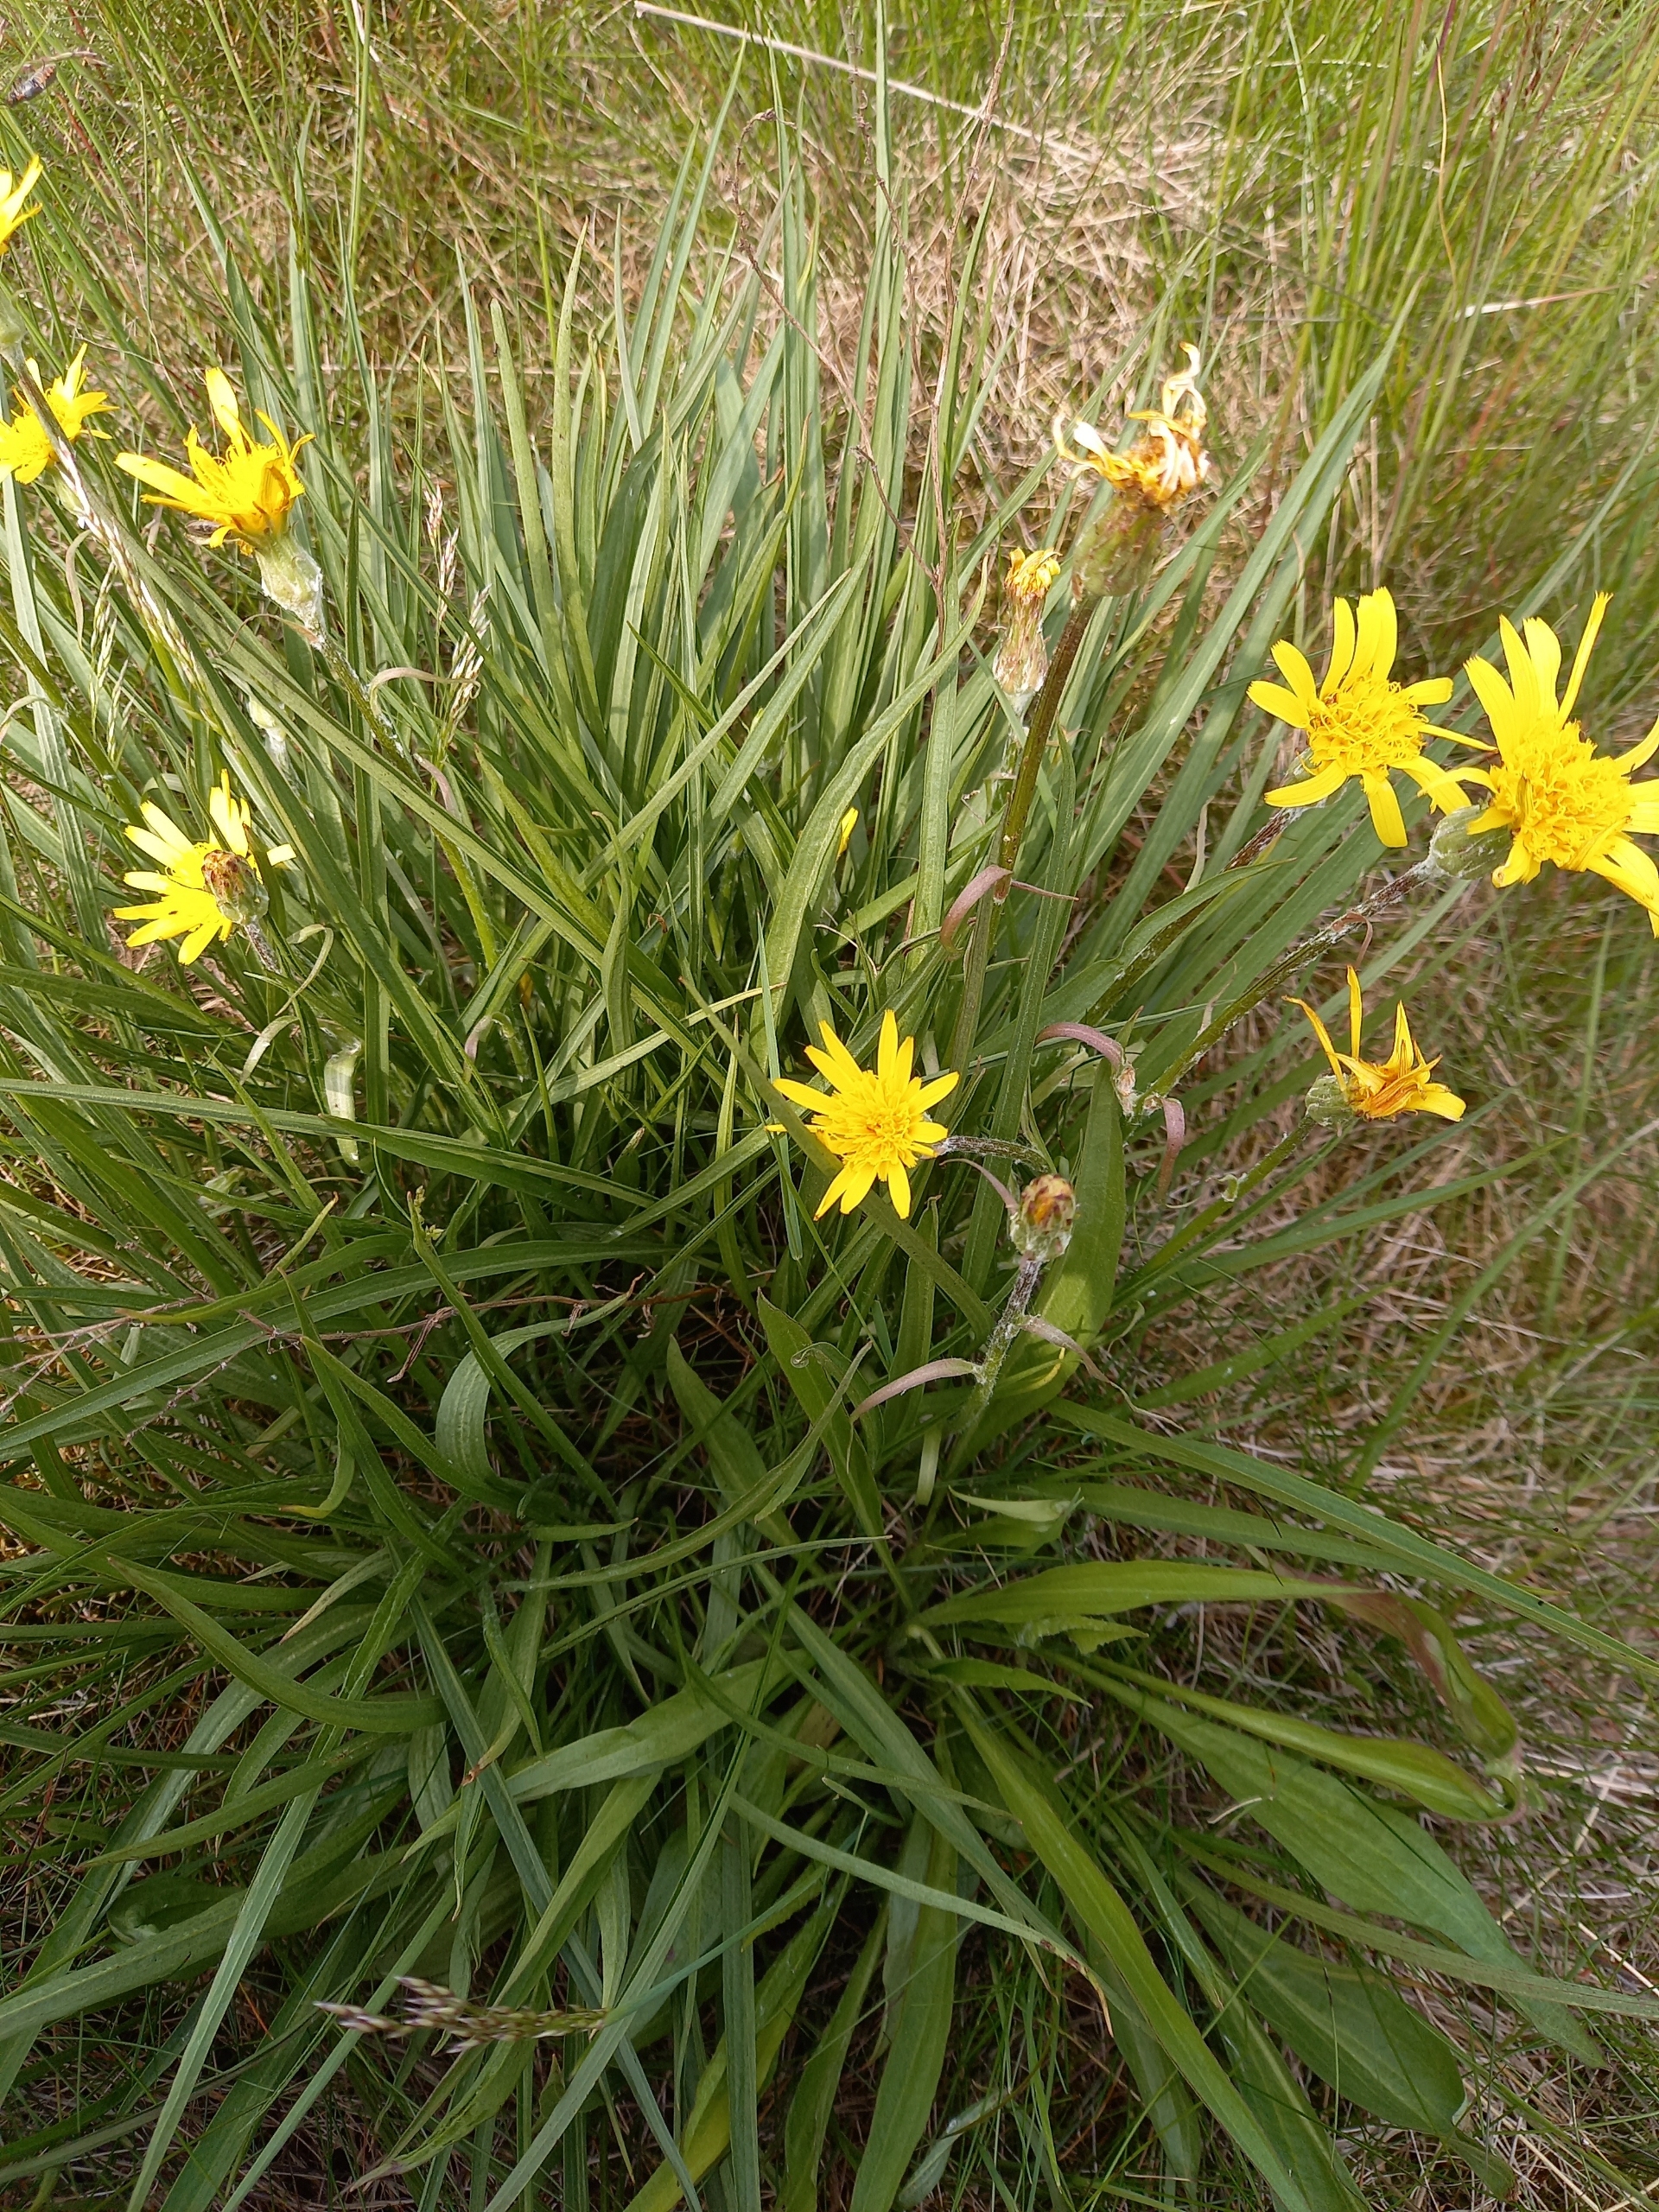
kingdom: Plantae
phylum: Tracheophyta
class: Magnoliopsida
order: Asterales
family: Asteraceae
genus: Scorzonera
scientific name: Scorzonera humilis
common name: Lav skorsoner
